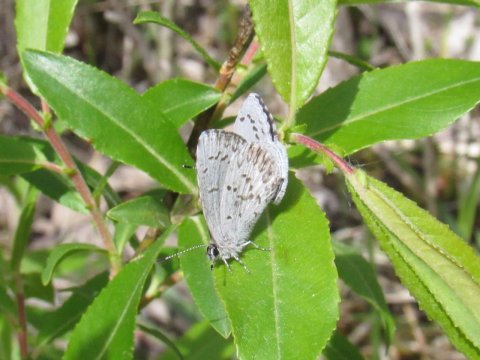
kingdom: Animalia
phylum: Arthropoda
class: Insecta
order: Lepidoptera
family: Lycaenidae
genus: Celastrina
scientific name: Celastrina lucia
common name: Northern Spring Azure
